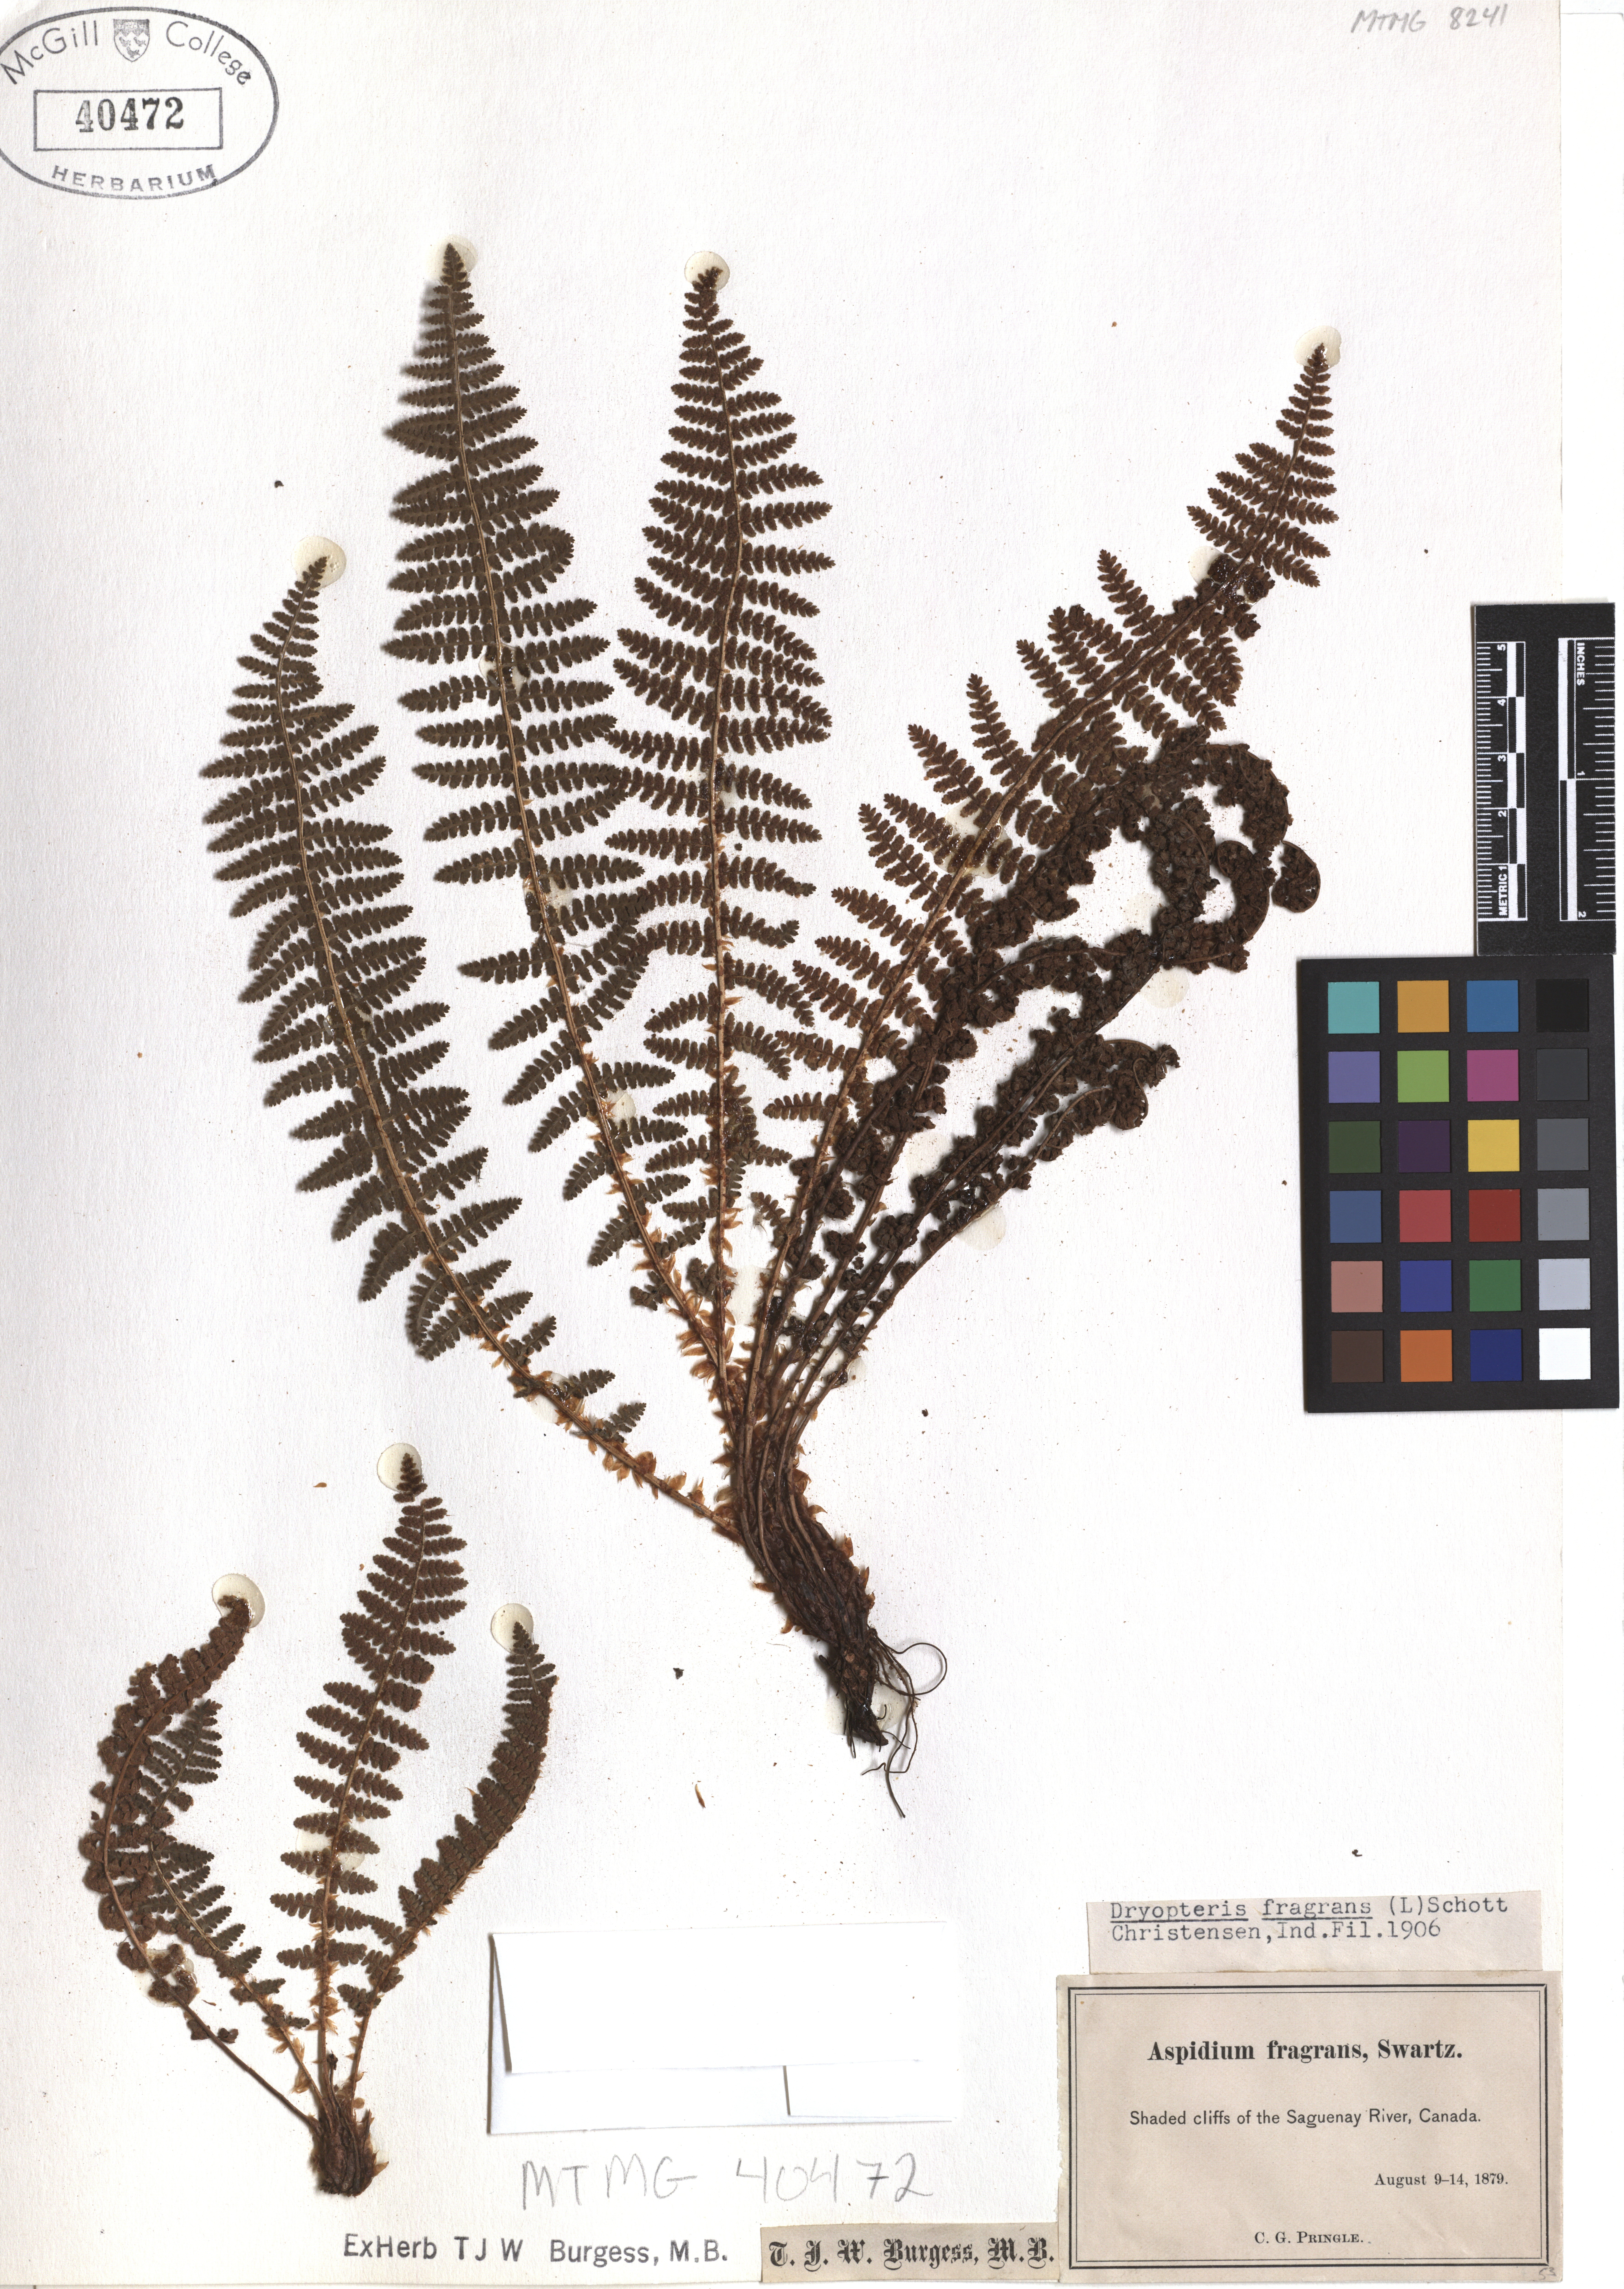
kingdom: Plantae
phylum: Tracheophyta
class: Polypodiopsida
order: Polypodiales
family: Dryopteridaceae
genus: Dryopteris
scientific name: Dryopteris fragrans
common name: Fragrant wood fern
